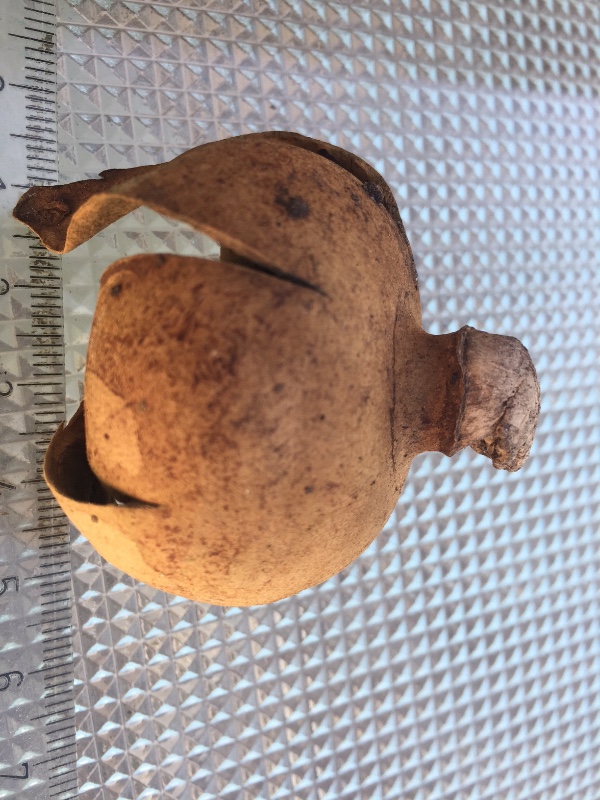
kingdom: Fungi
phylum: Basidiomycota
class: Agaricomycetes
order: Geastrales
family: Geastraceae
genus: Geastrum
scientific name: Geastrum melanocephalum
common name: håret stjernebold
